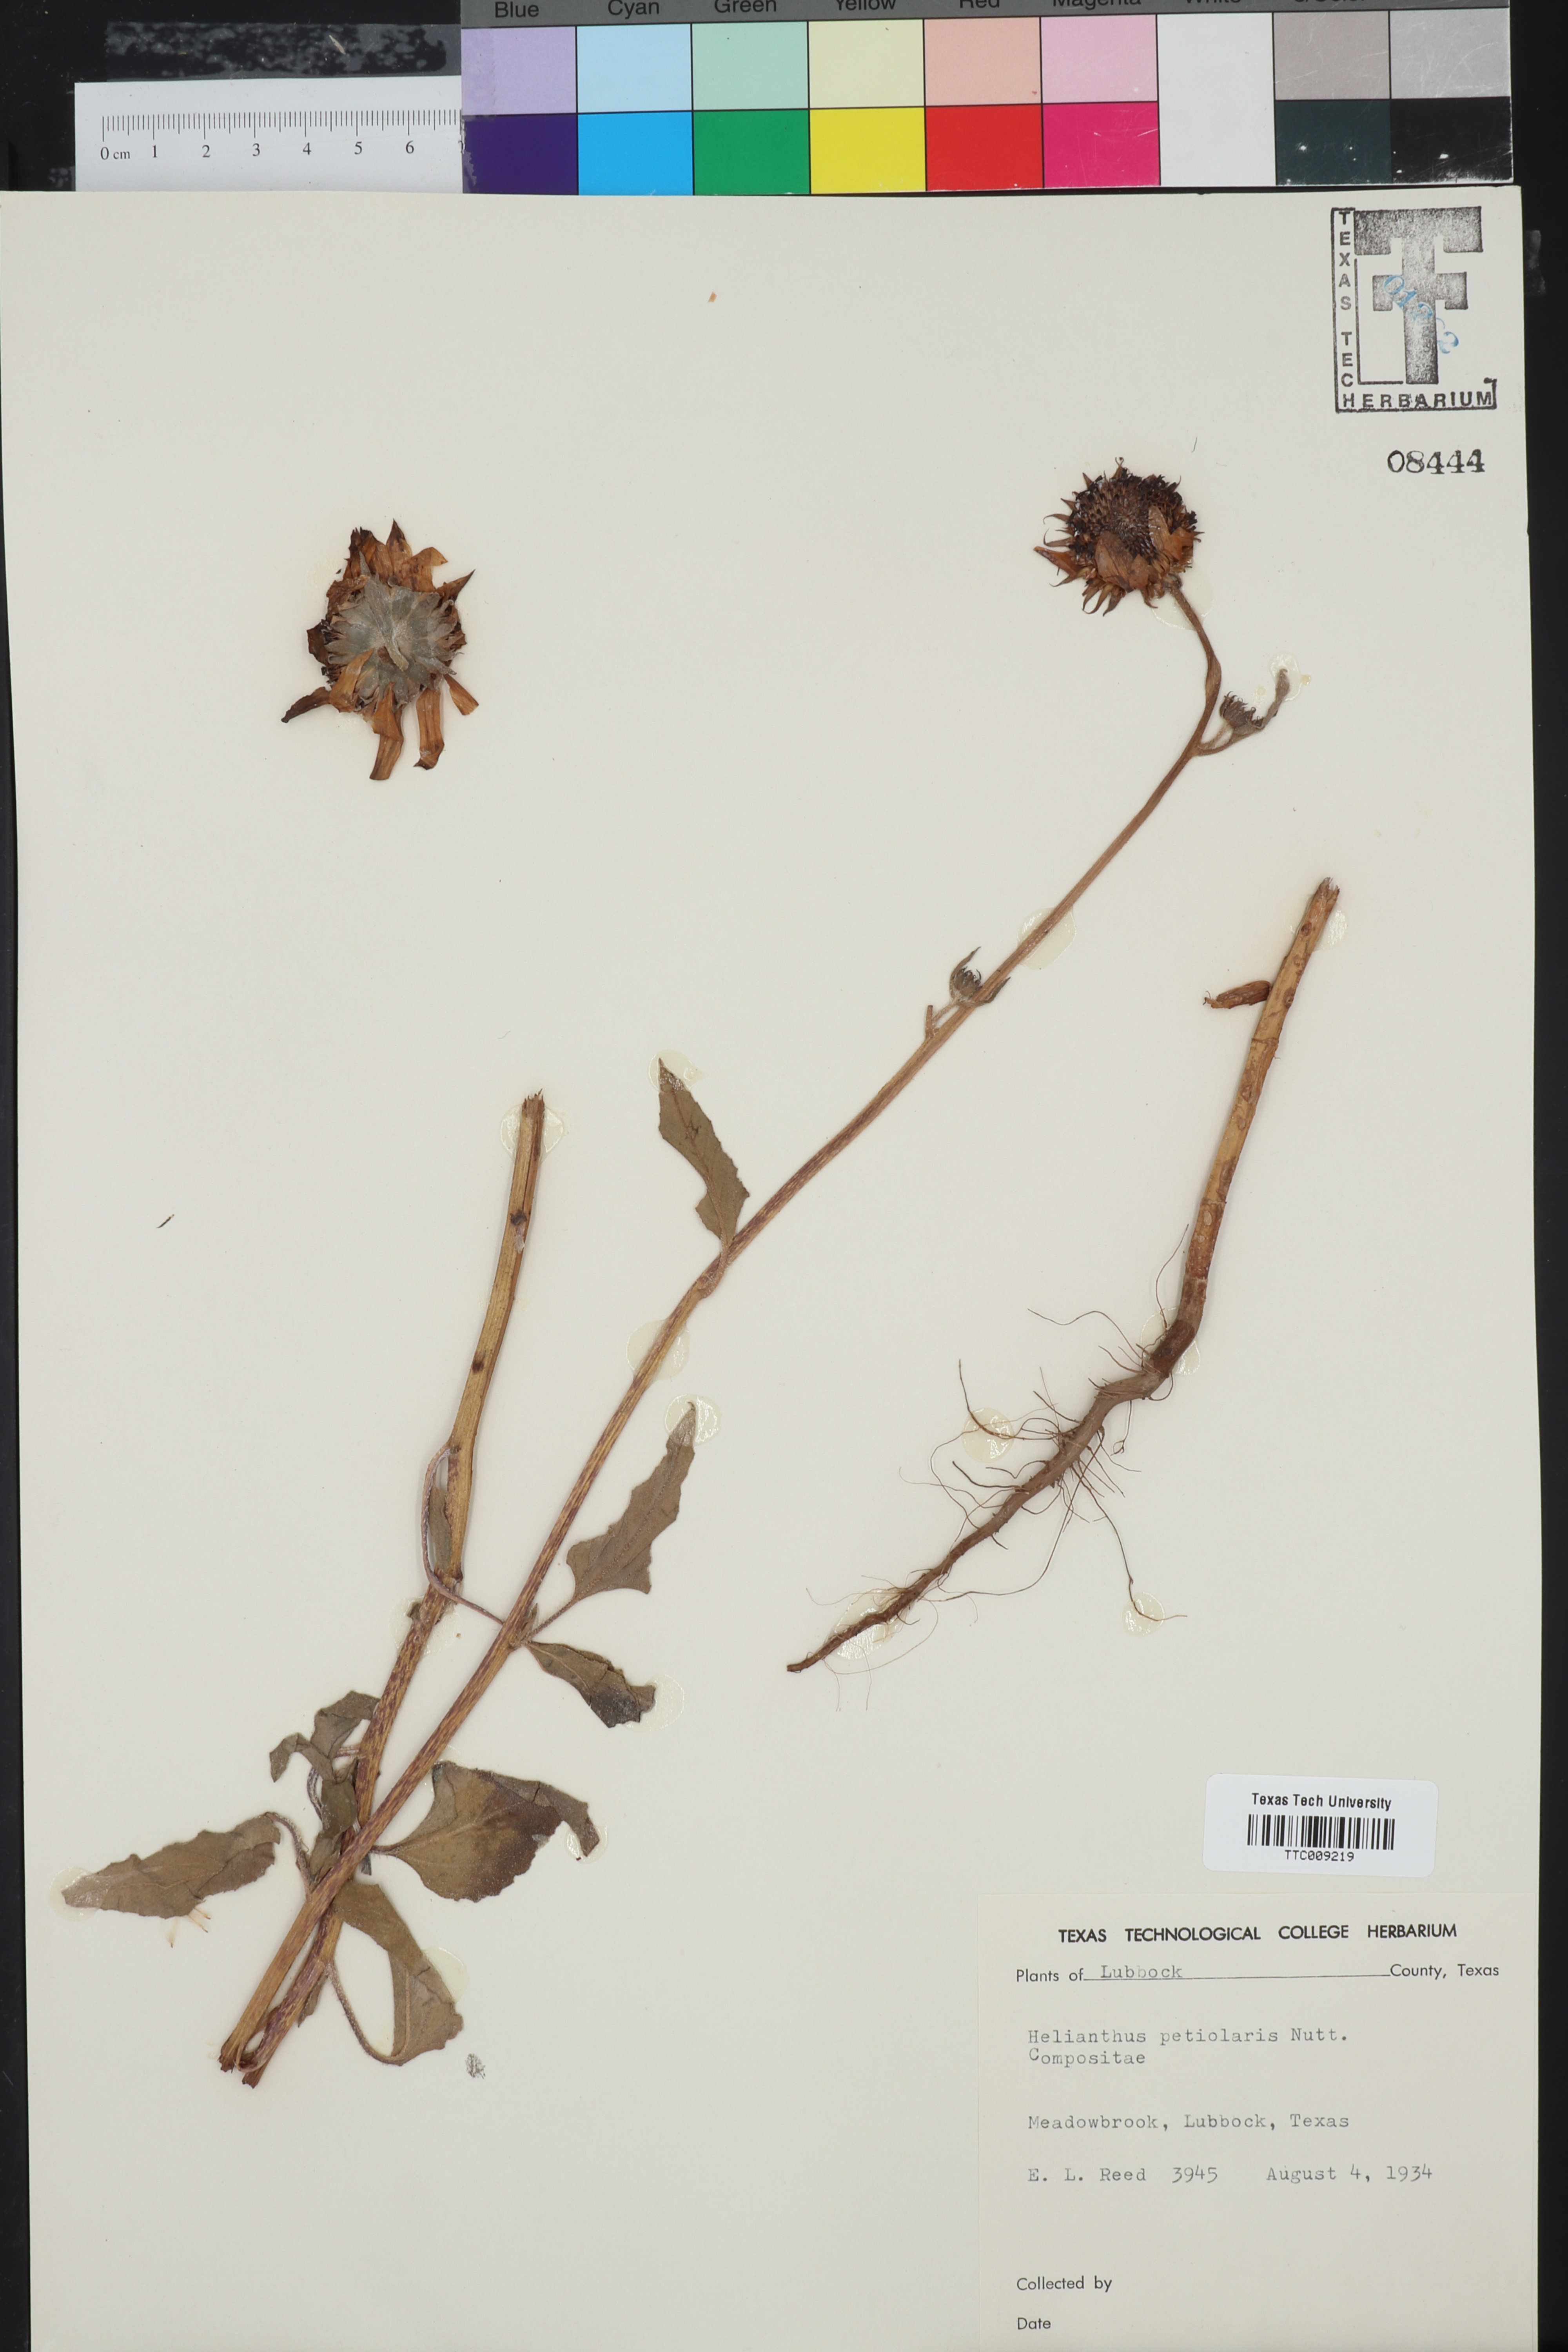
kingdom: Plantae
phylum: Tracheophyta
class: Magnoliopsida
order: Asterales
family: Asteraceae
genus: Helianthus
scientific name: Helianthus petiolaris
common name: Lesser sunflower
